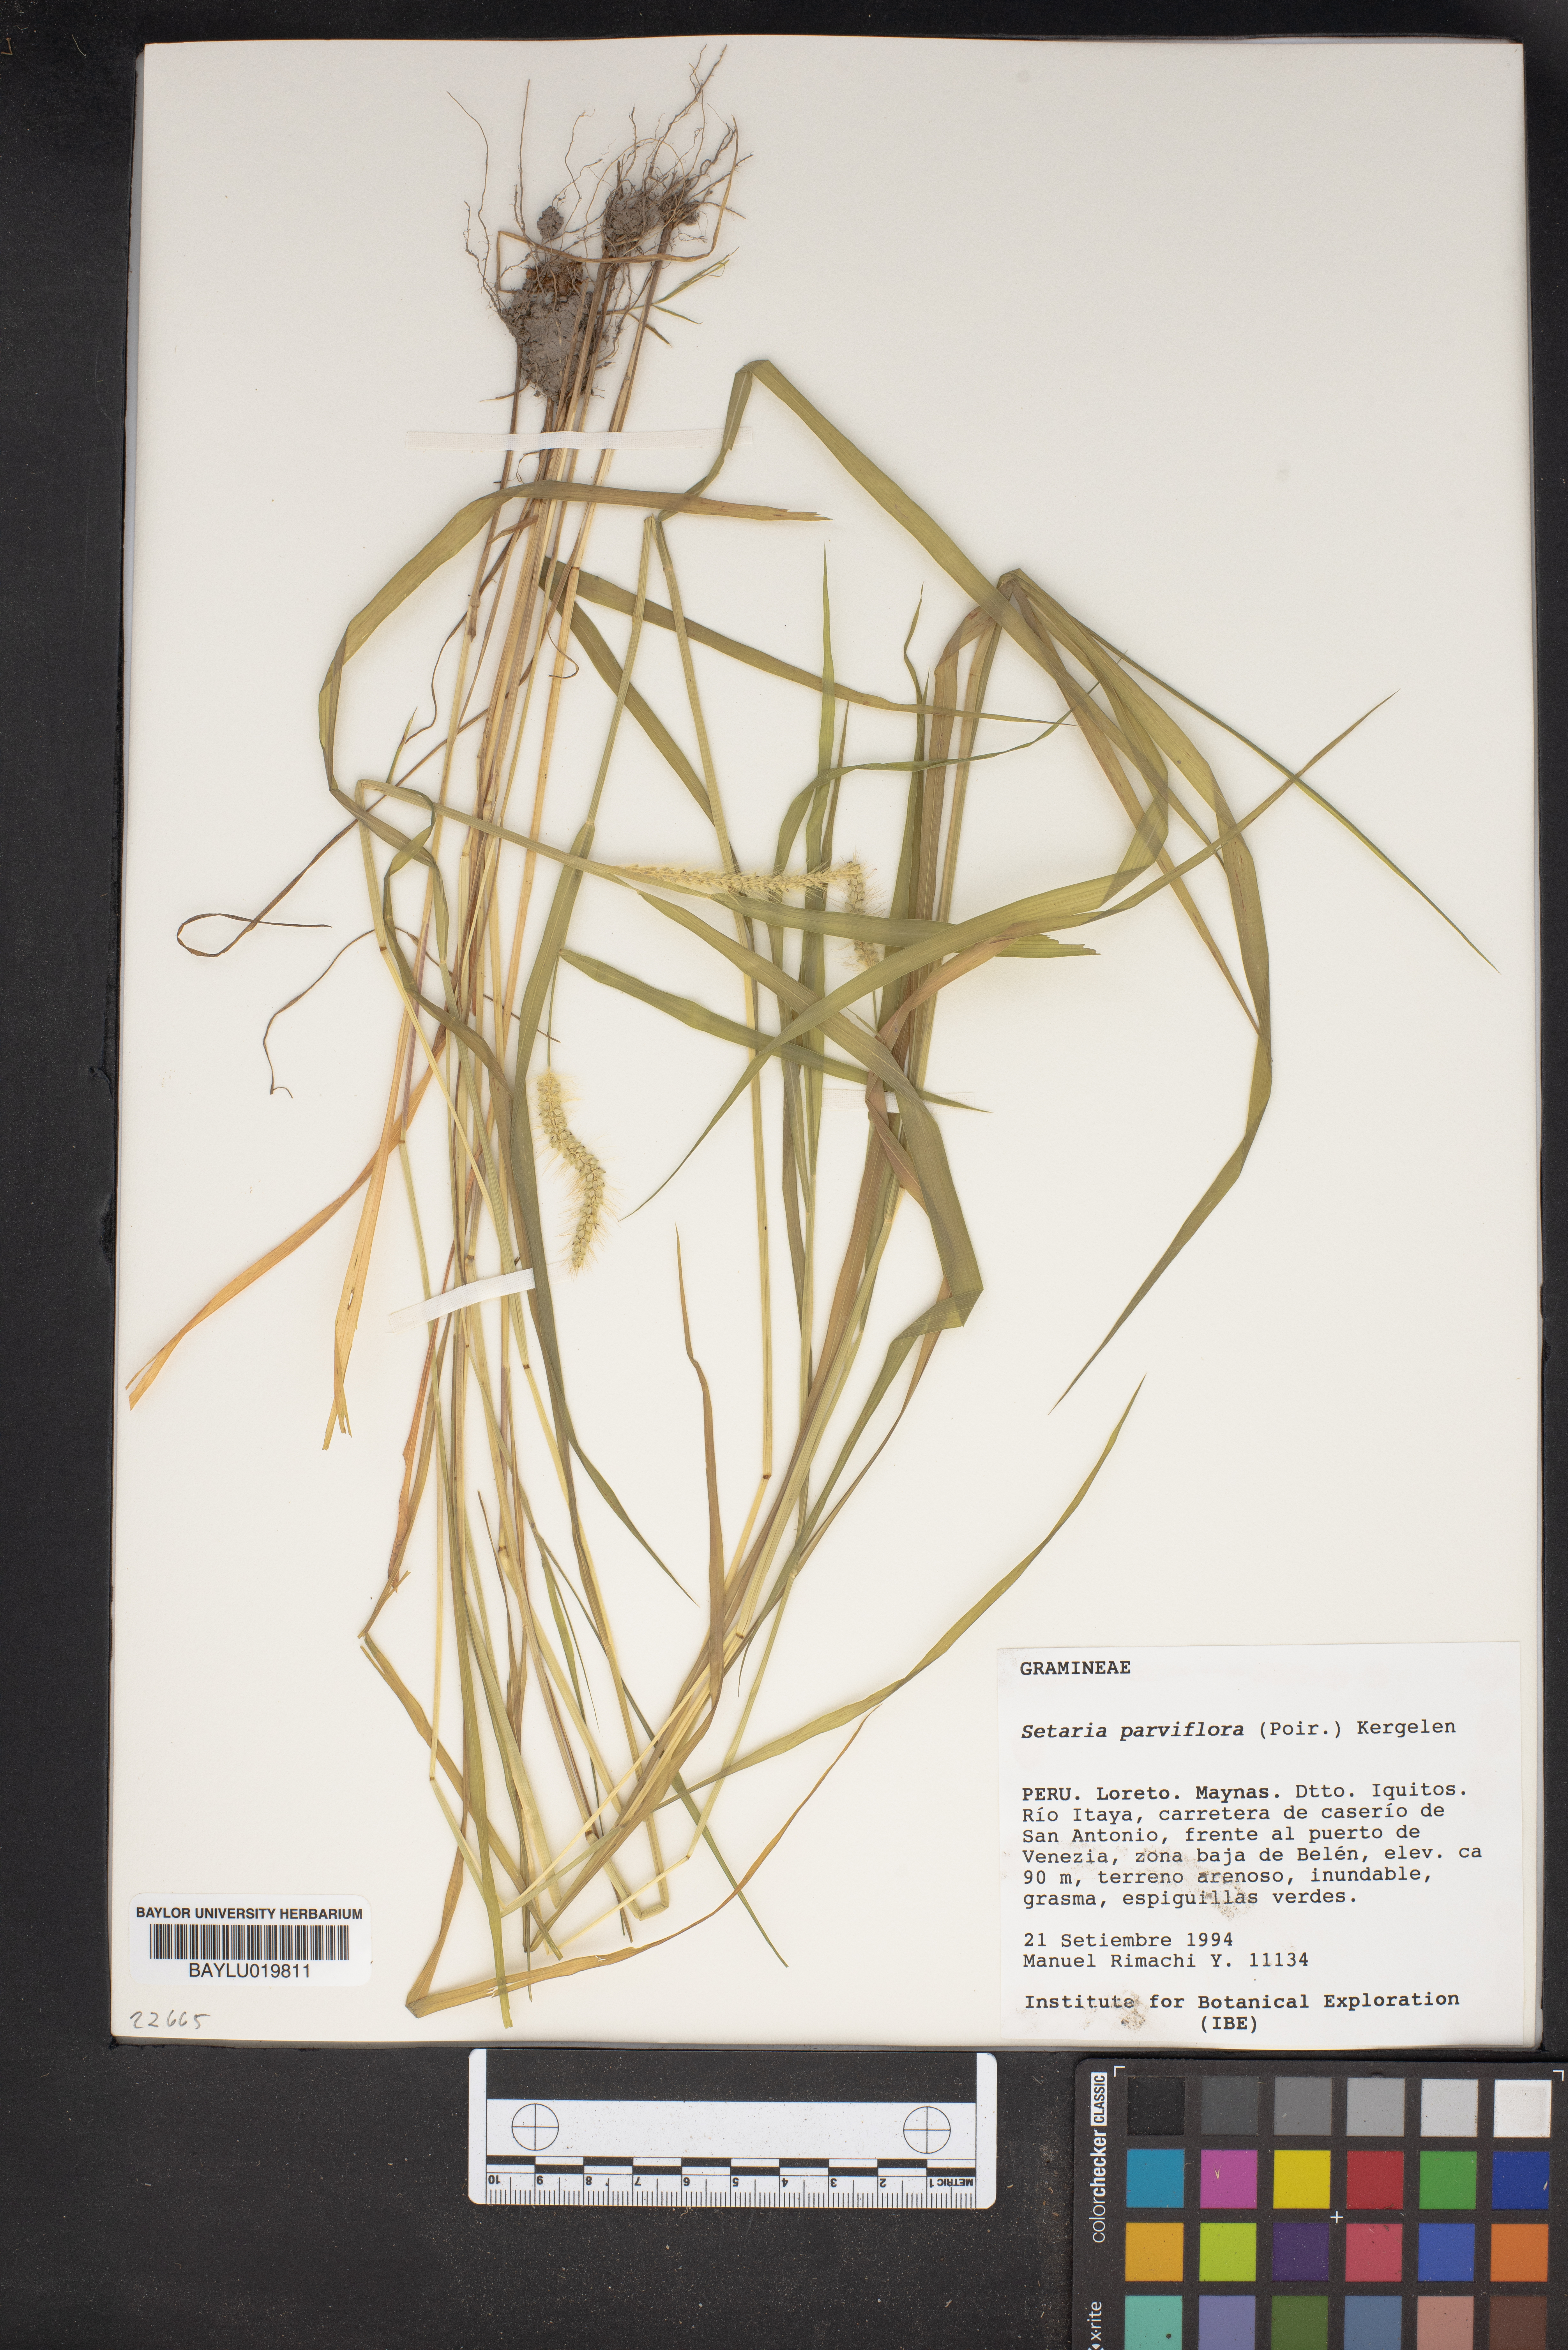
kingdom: Plantae
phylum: Tracheophyta
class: Liliopsida
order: Poales
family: Poaceae
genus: Setaria
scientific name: Setaria parviflora
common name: Knotroot bristle-grass
